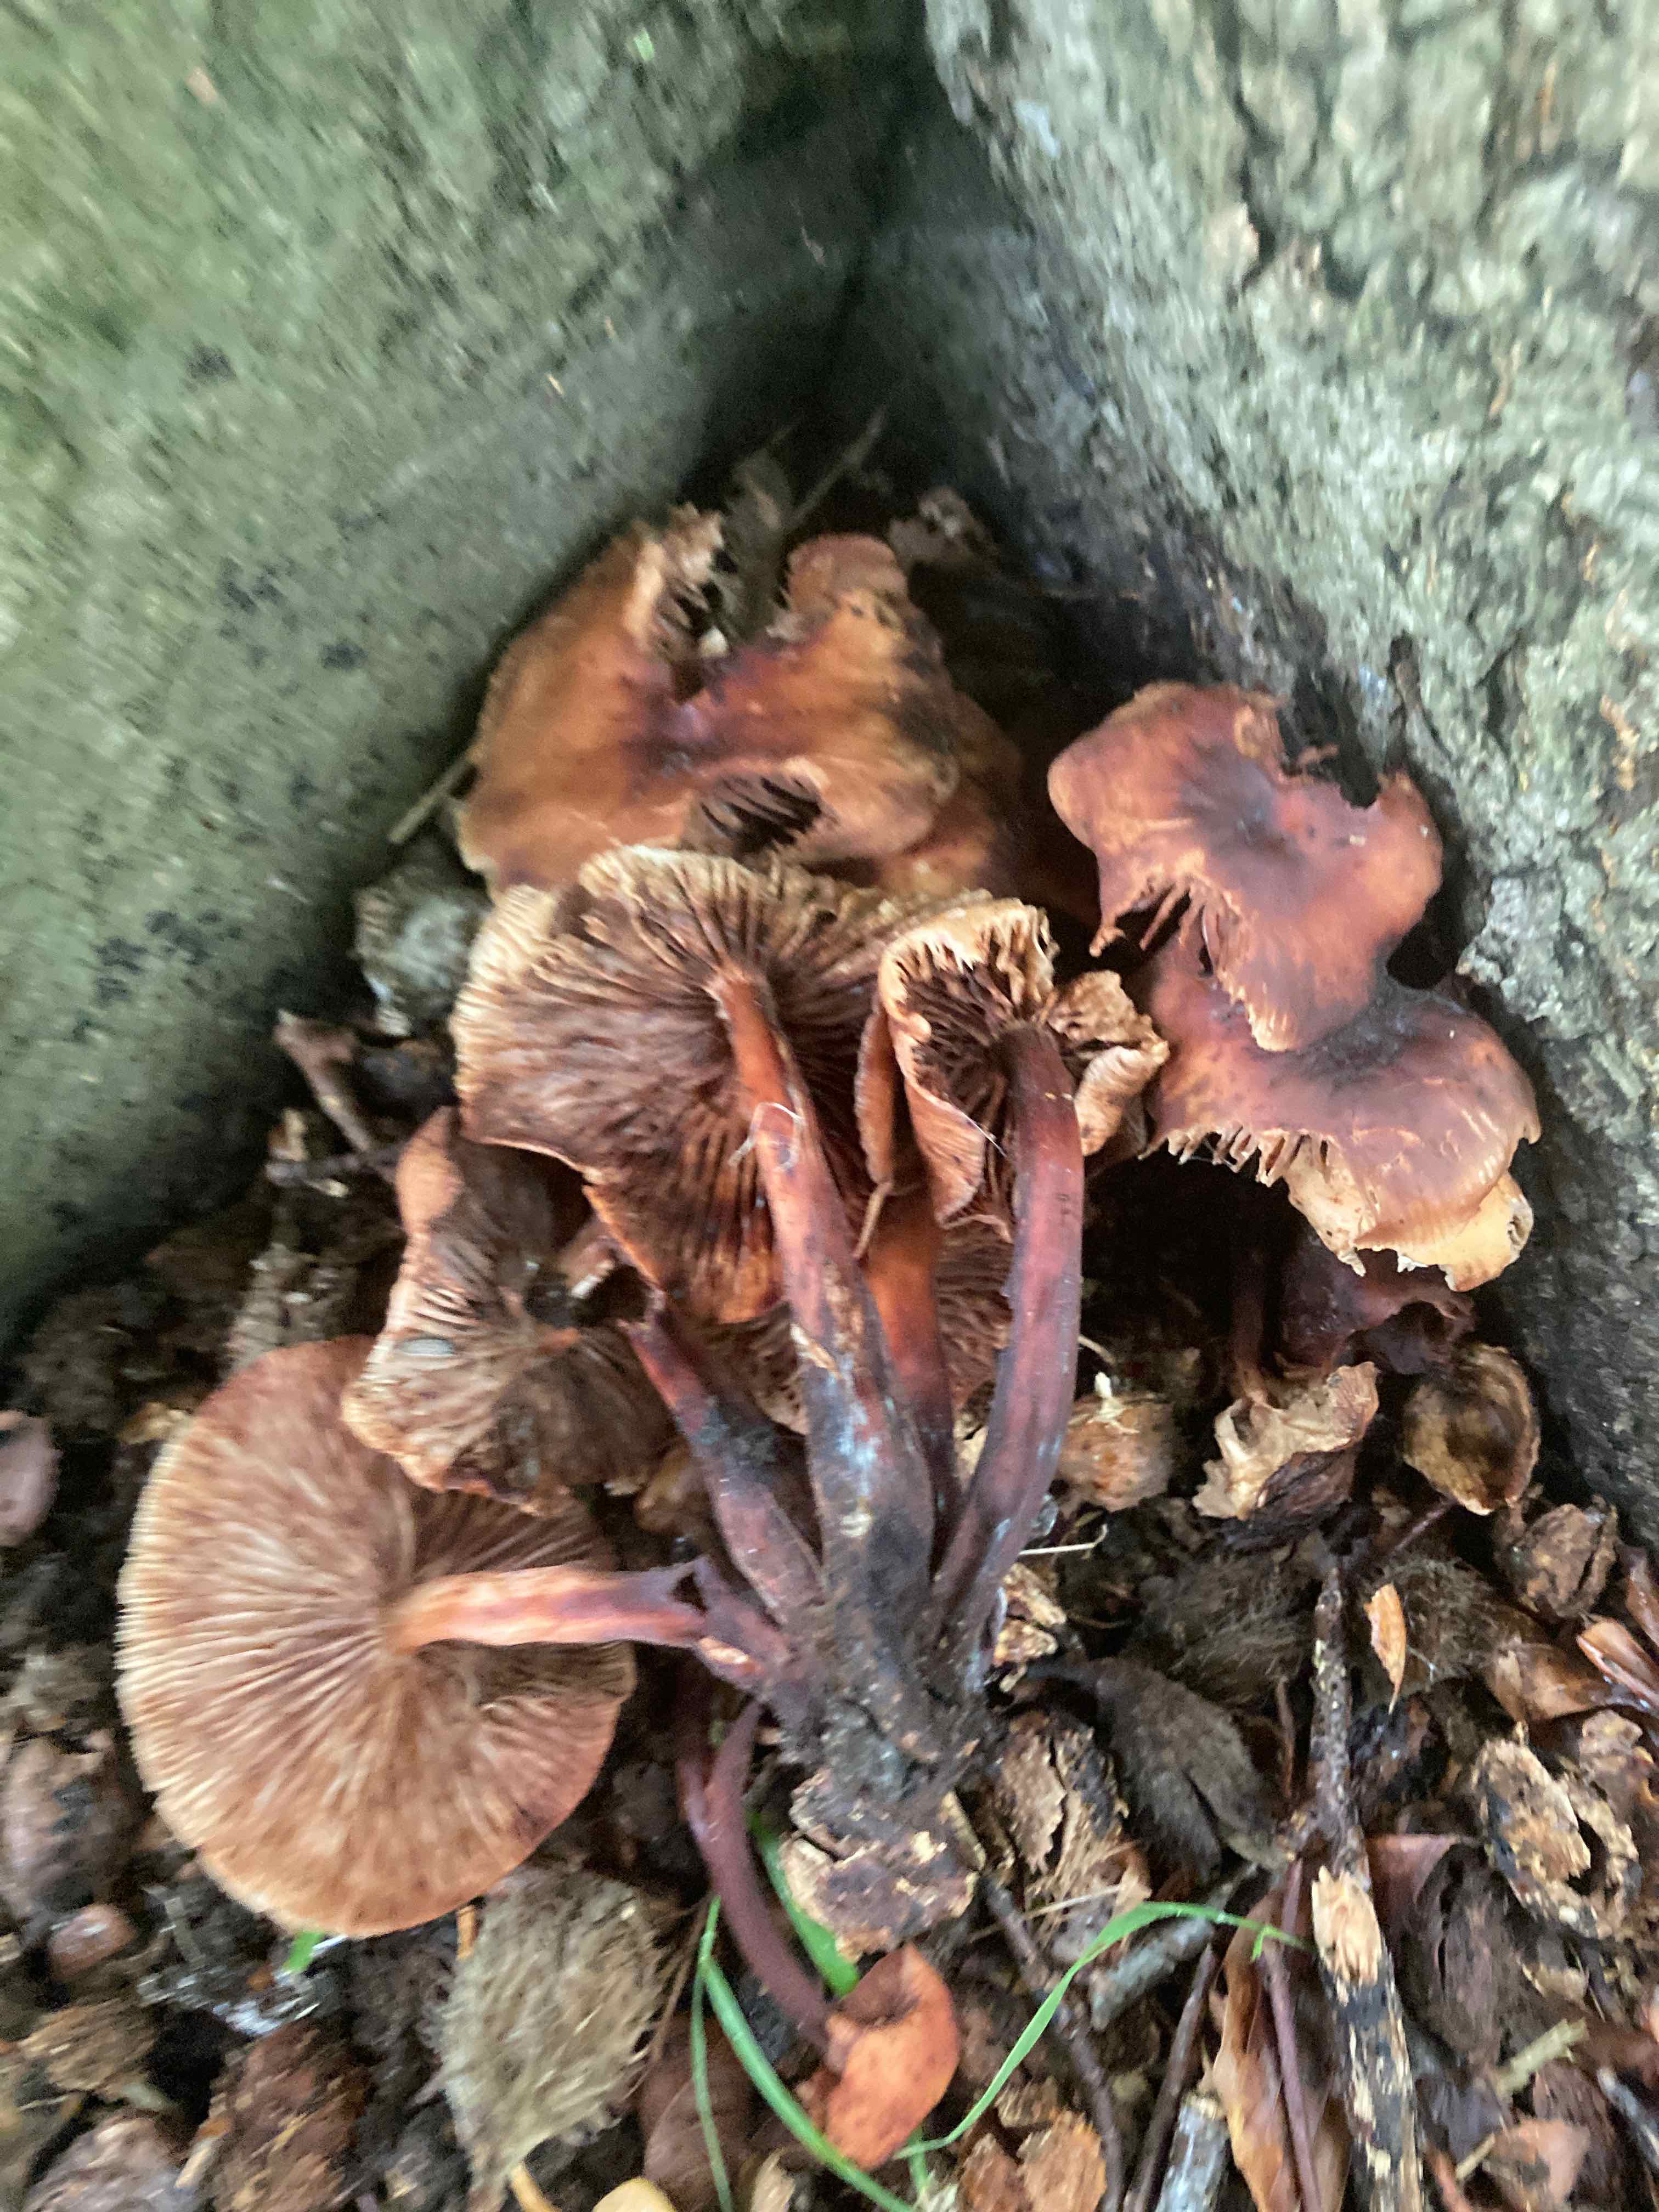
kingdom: Fungi
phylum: Basidiomycota
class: Agaricomycetes
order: Agaricales
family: Omphalotaceae
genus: Gymnopus
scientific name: Gymnopus fusipes
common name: tenstokket fladhat
